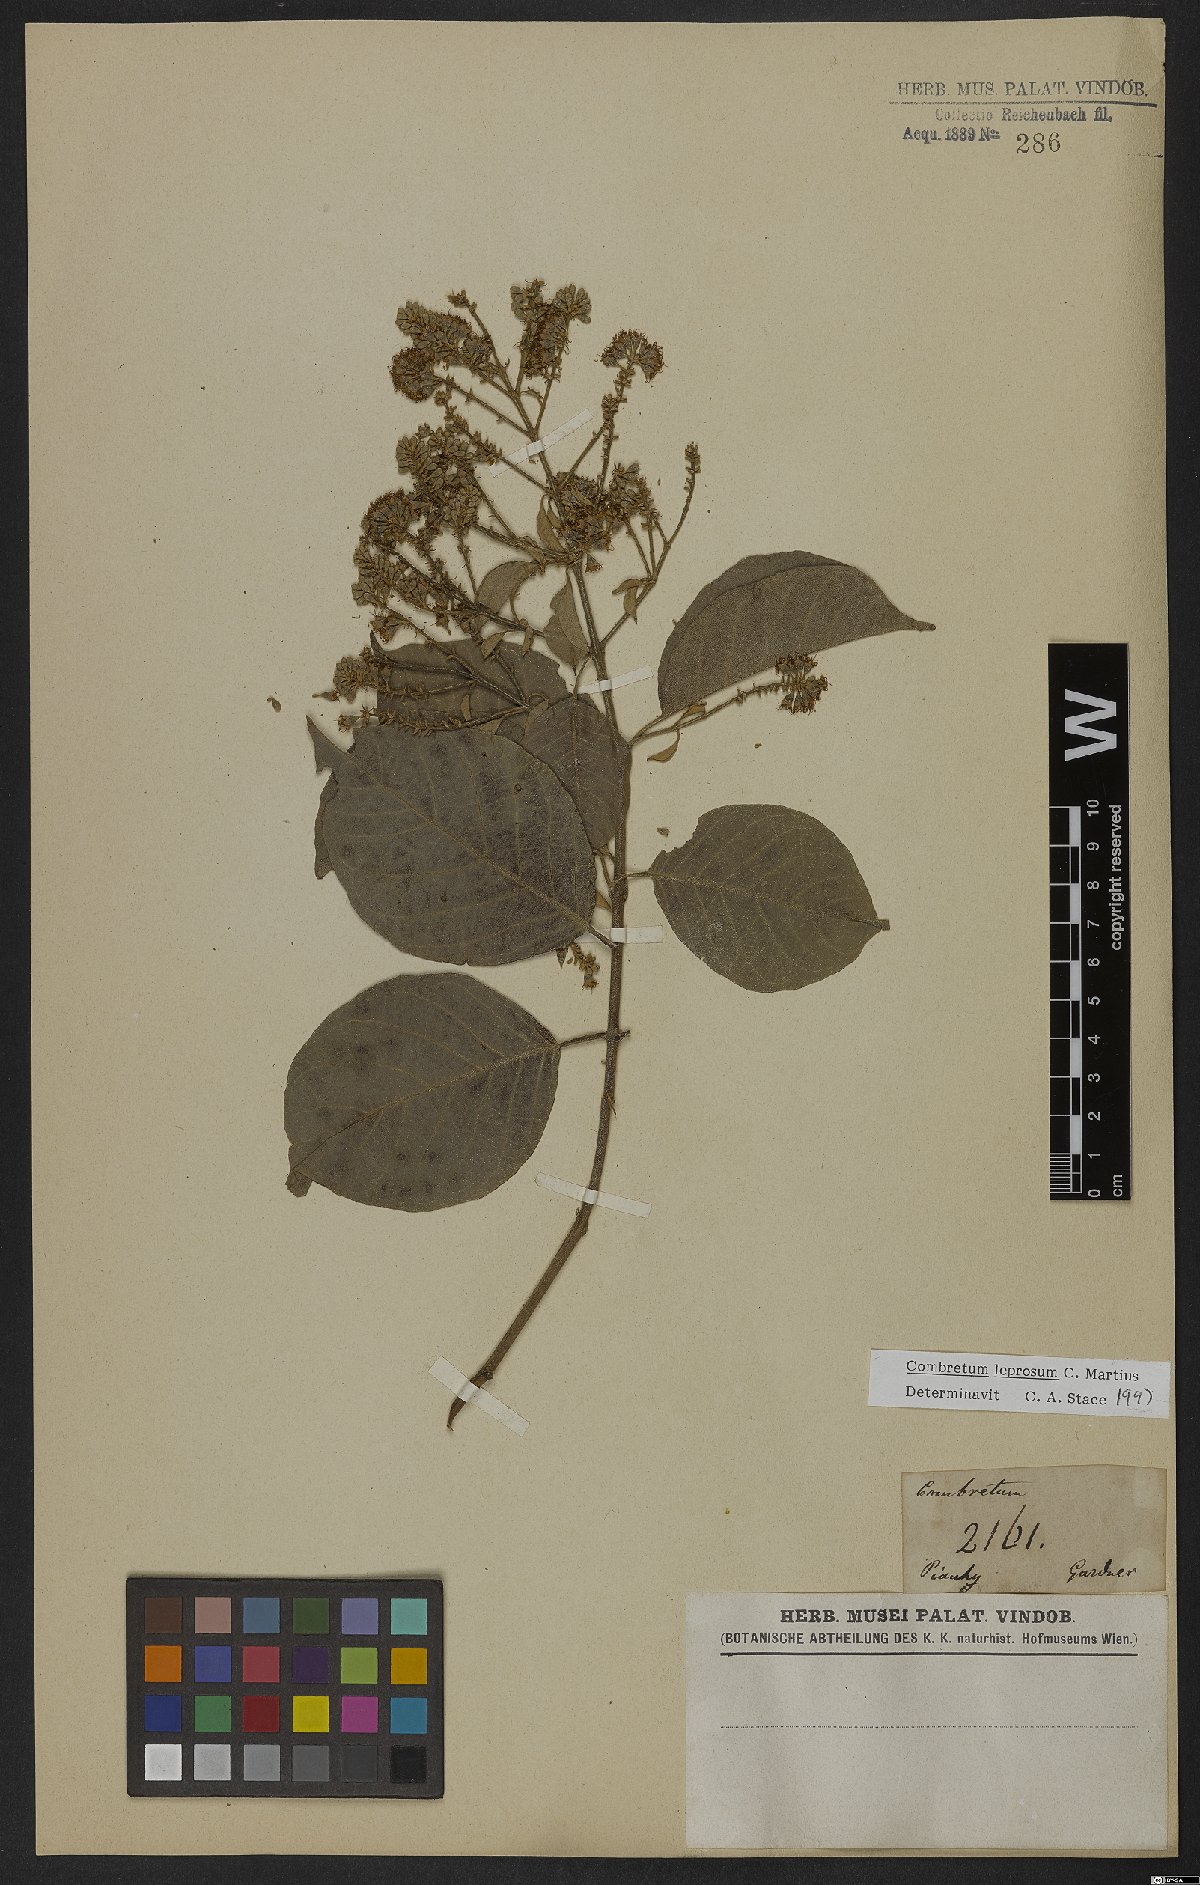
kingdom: Plantae
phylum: Tracheophyta
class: Magnoliopsida
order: Myrtales
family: Combretaceae
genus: Combretum
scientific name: Combretum leprosum
